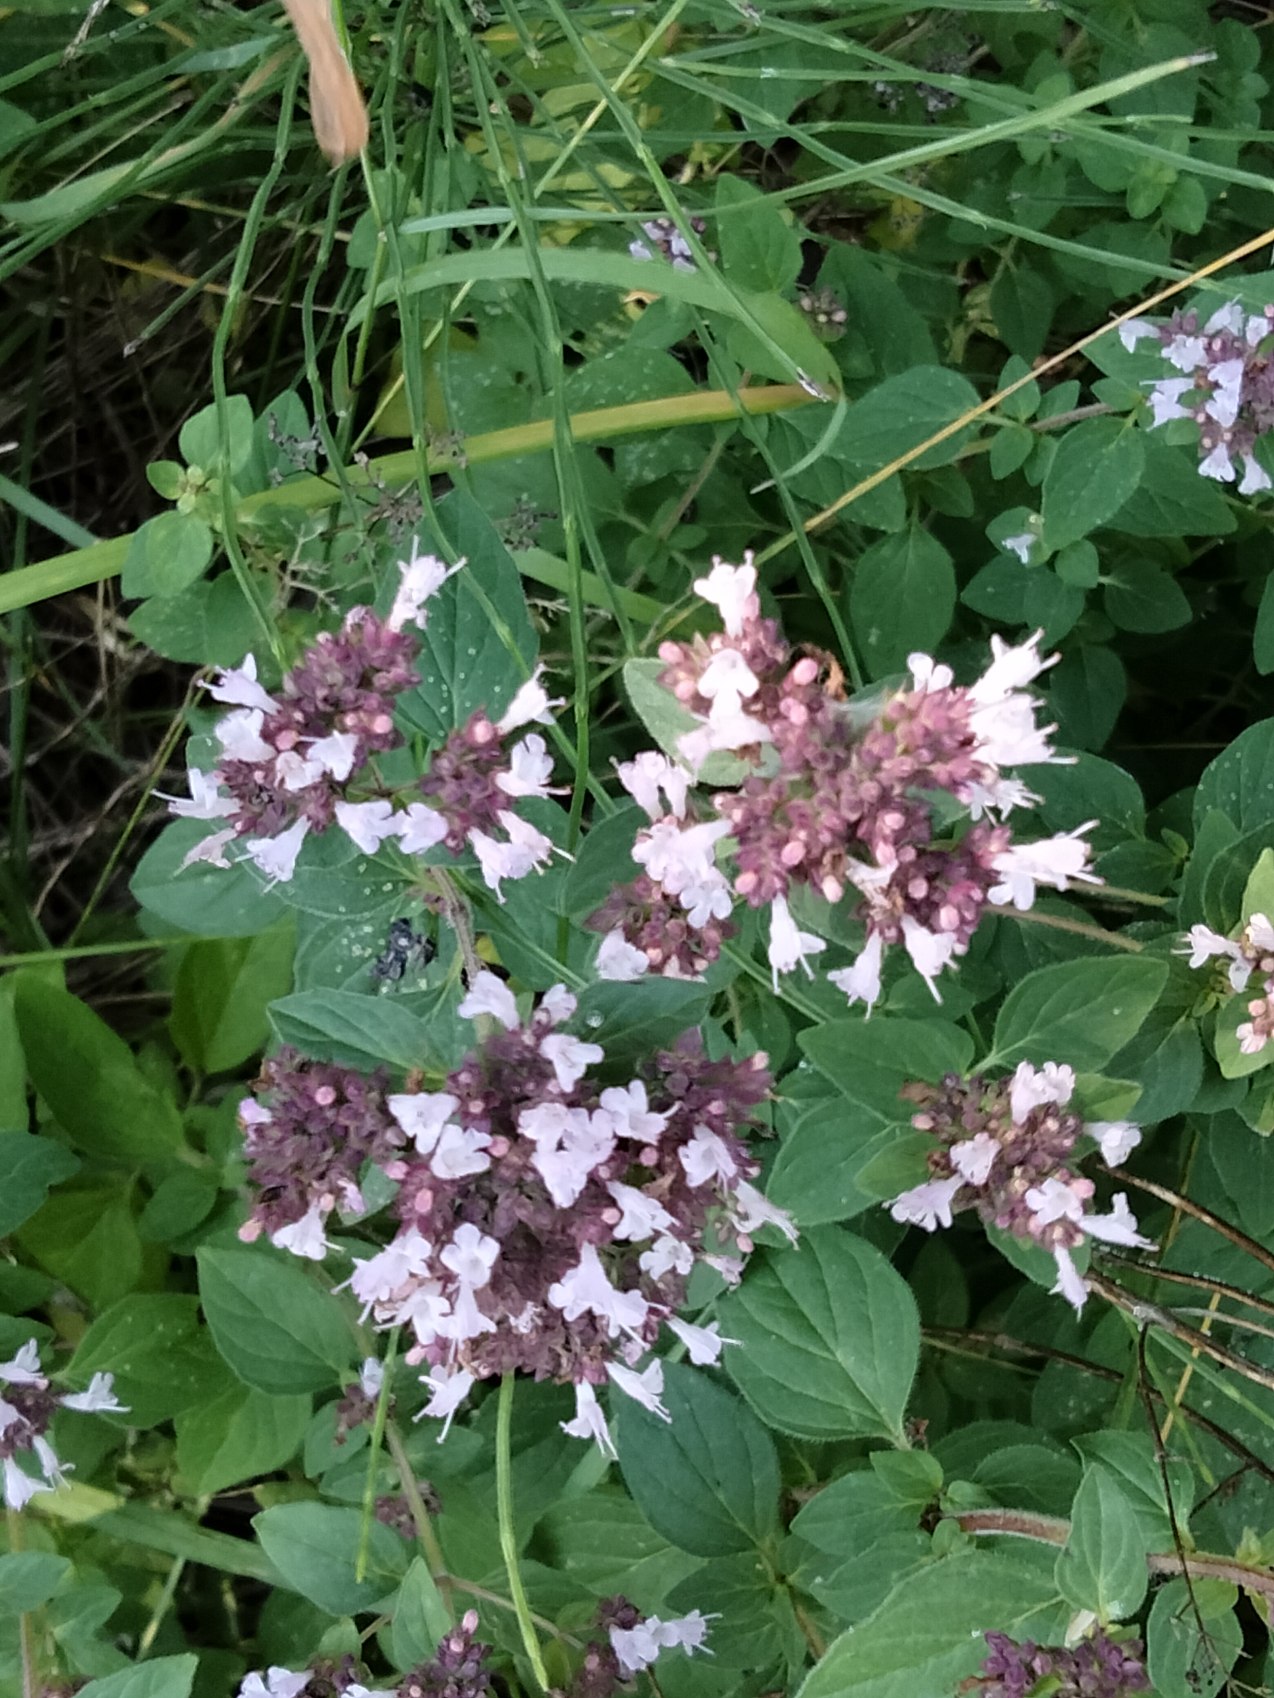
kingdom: Plantae
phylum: Tracheophyta
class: Magnoliopsida
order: Lamiales
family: Lamiaceae
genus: Origanum
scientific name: Origanum vulgare
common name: Merian
